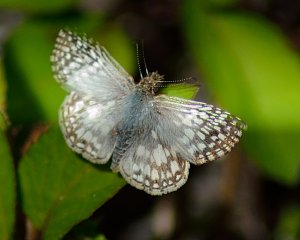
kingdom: Animalia
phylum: Arthropoda
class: Insecta
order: Lepidoptera
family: Hesperiidae
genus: Pyrgus
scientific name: Pyrgus oileus
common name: Tropical Checkered-Skipper
